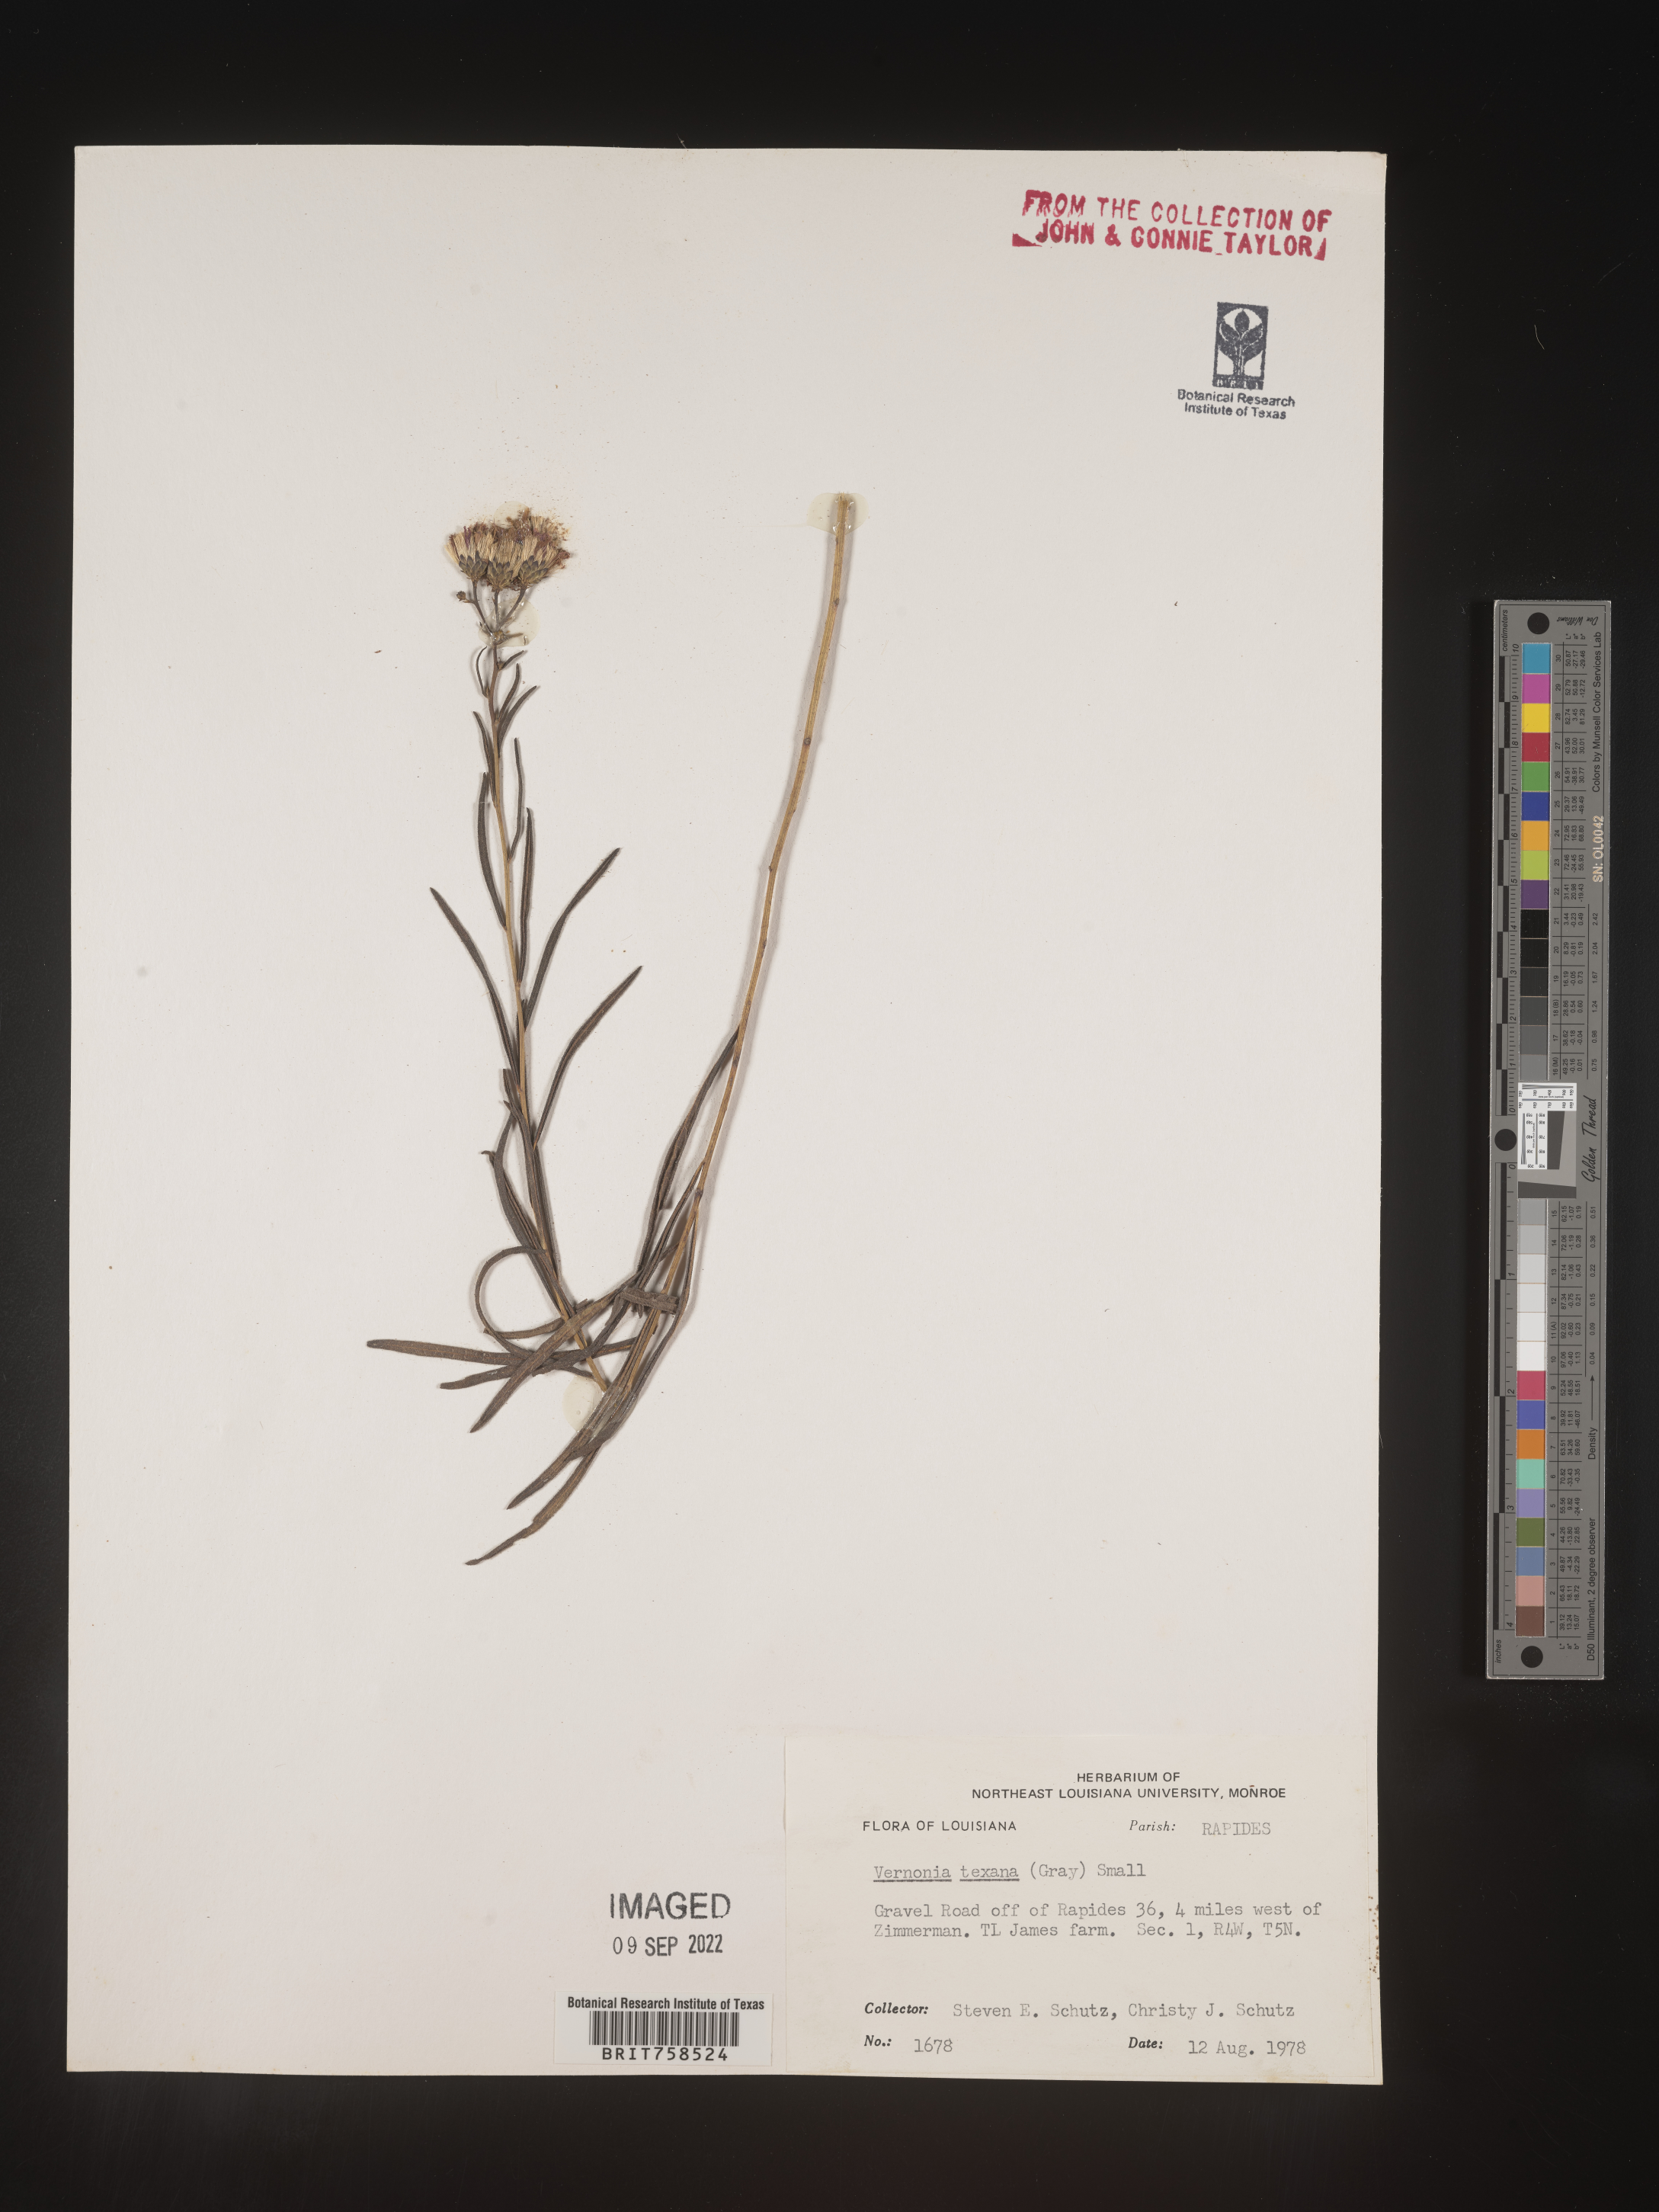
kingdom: Plantae
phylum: Tracheophyta
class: Magnoliopsida
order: Asterales
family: Asteraceae
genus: Vernonia
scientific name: Vernonia texana
